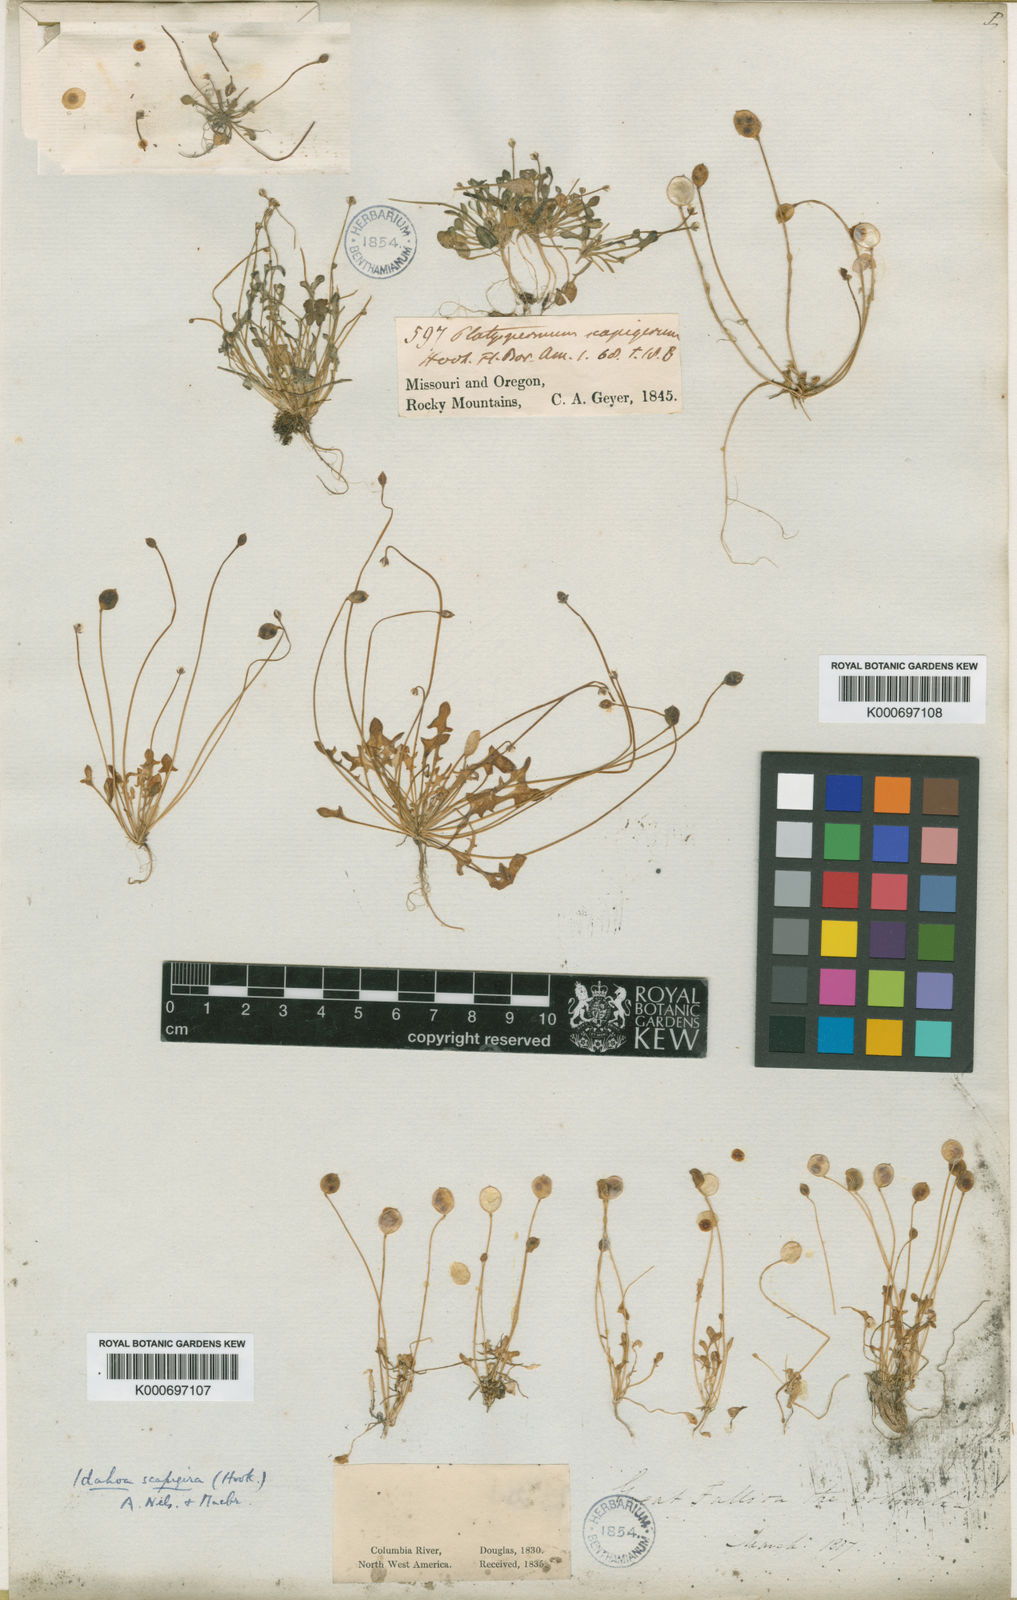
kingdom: Plantae
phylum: Tracheophyta
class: Magnoliopsida
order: Brassicales
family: Brassicaceae
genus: Idahoa
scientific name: Idahoa scapigera
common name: Scalepod
